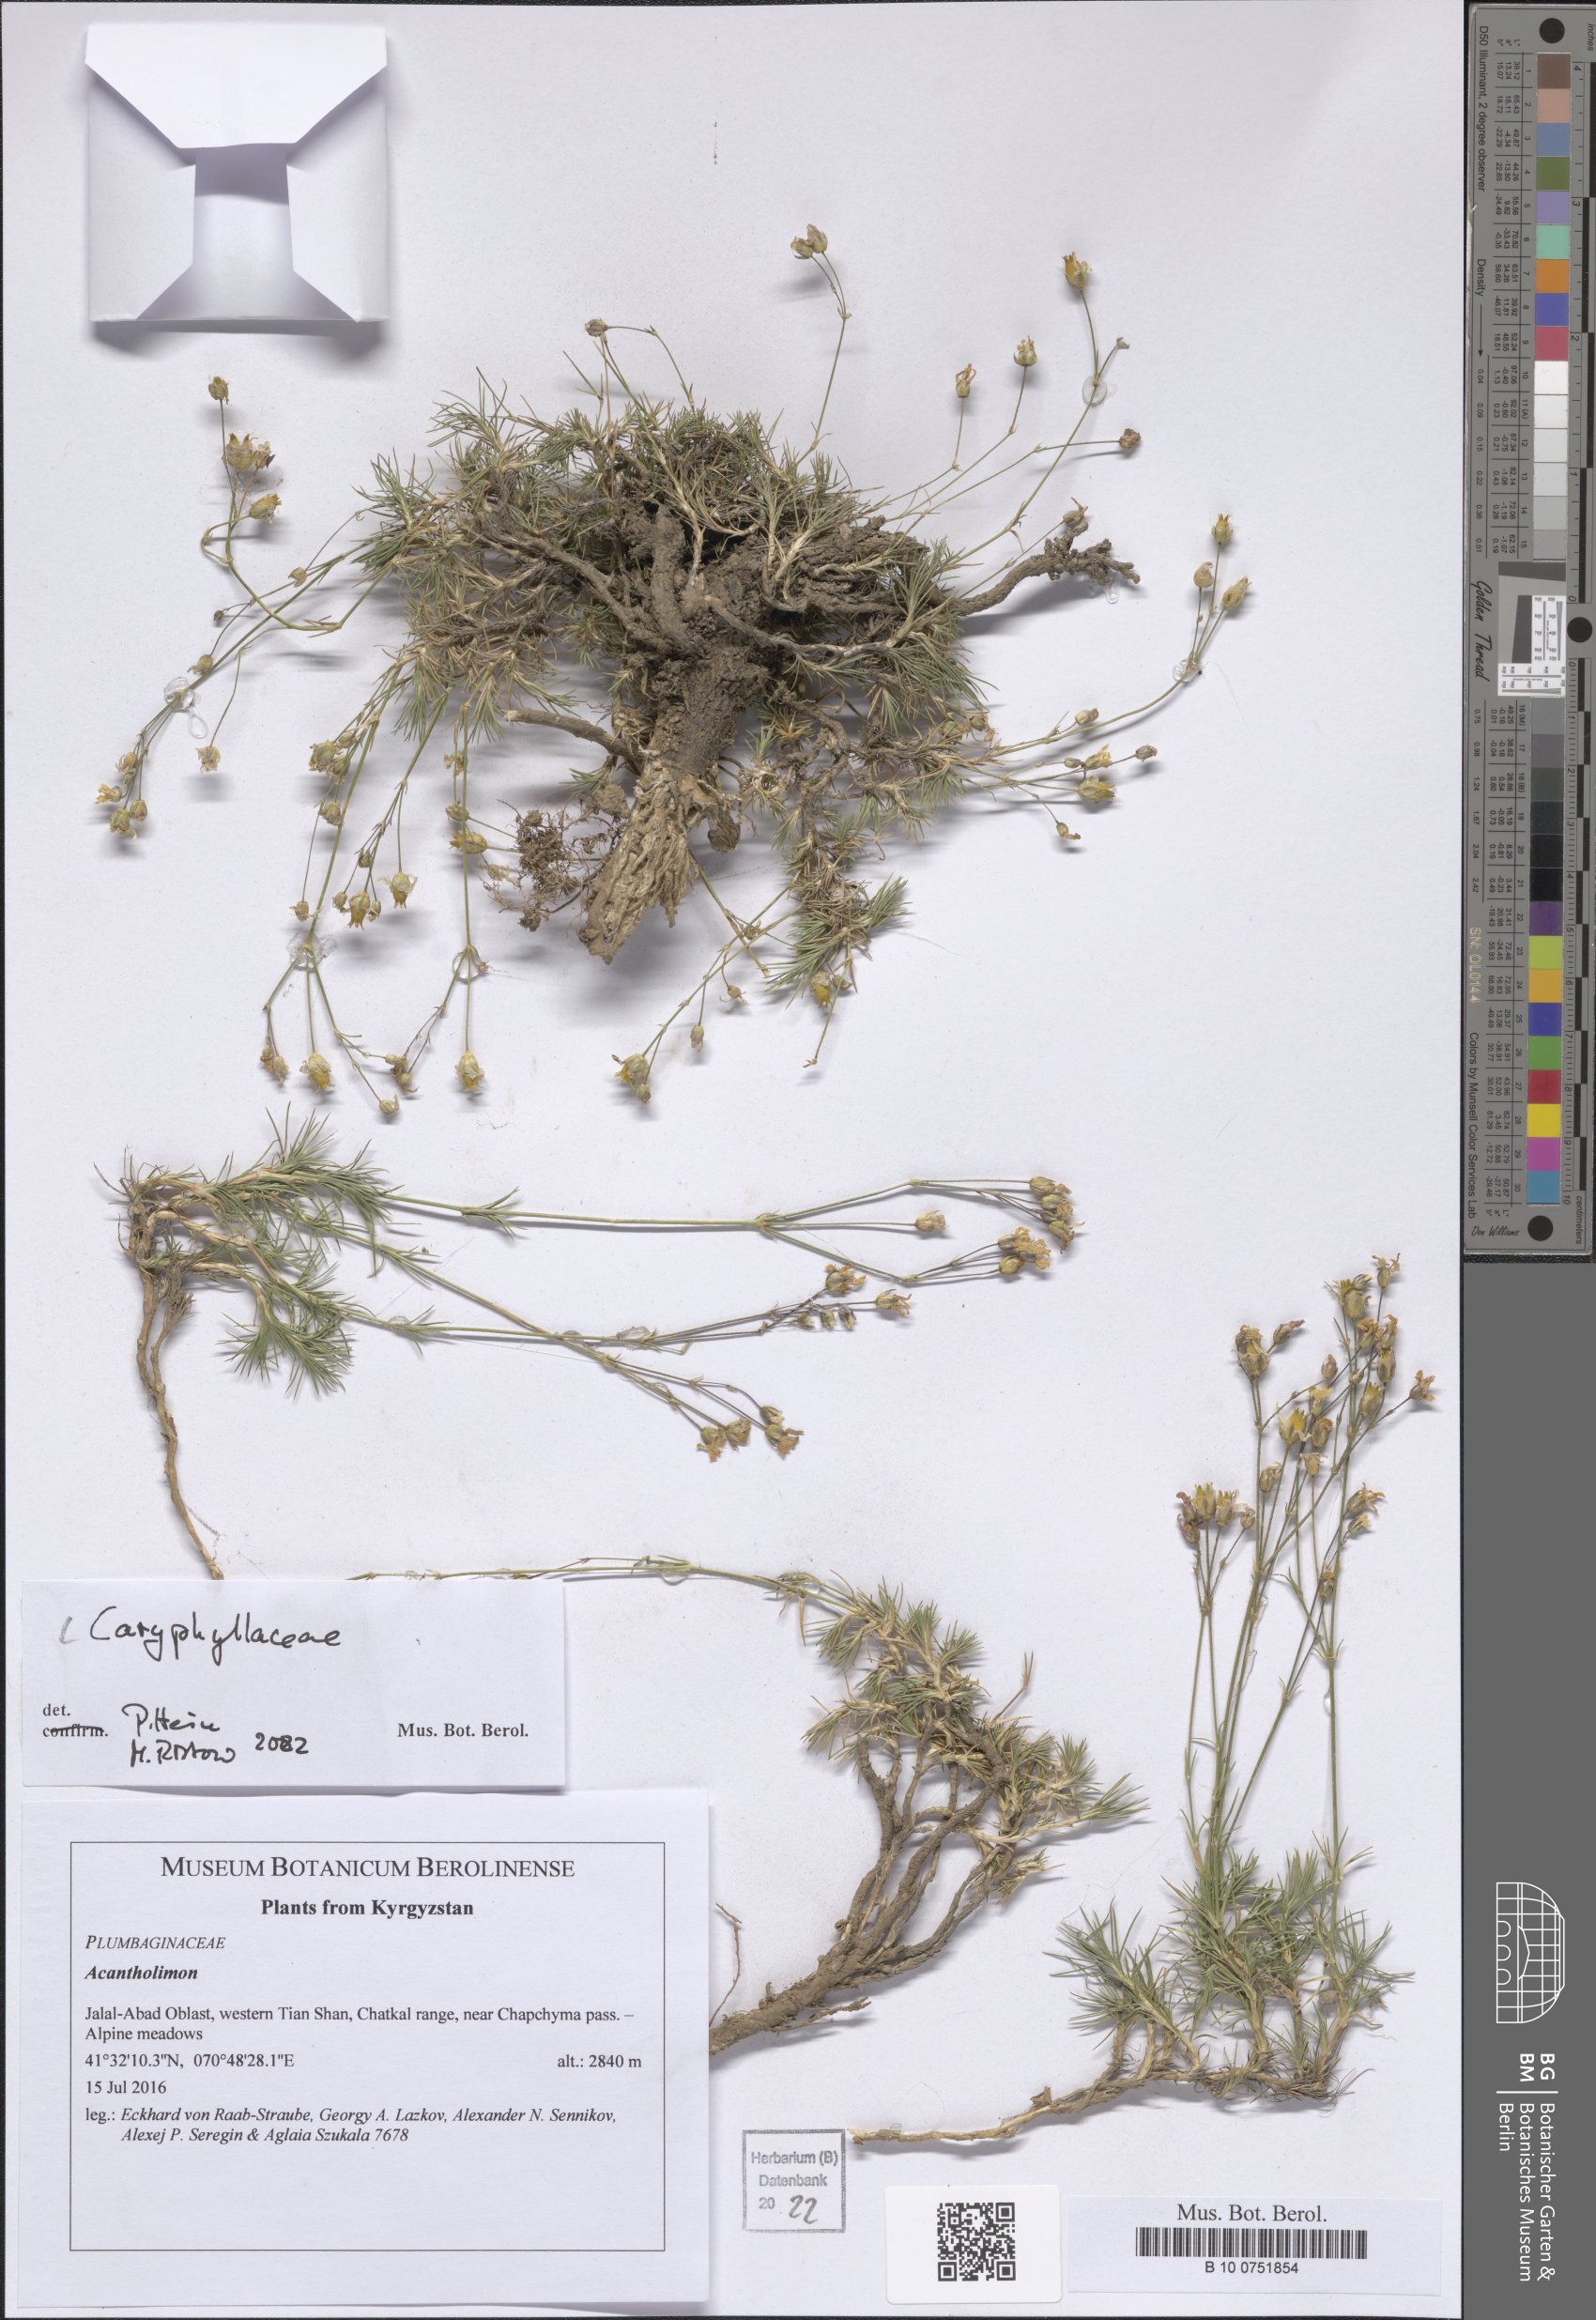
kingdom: Plantae
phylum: Tracheophyta
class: Magnoliopsida
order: Caryophyllales
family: Caryophyllaceae
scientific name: Caryophyllaceae
